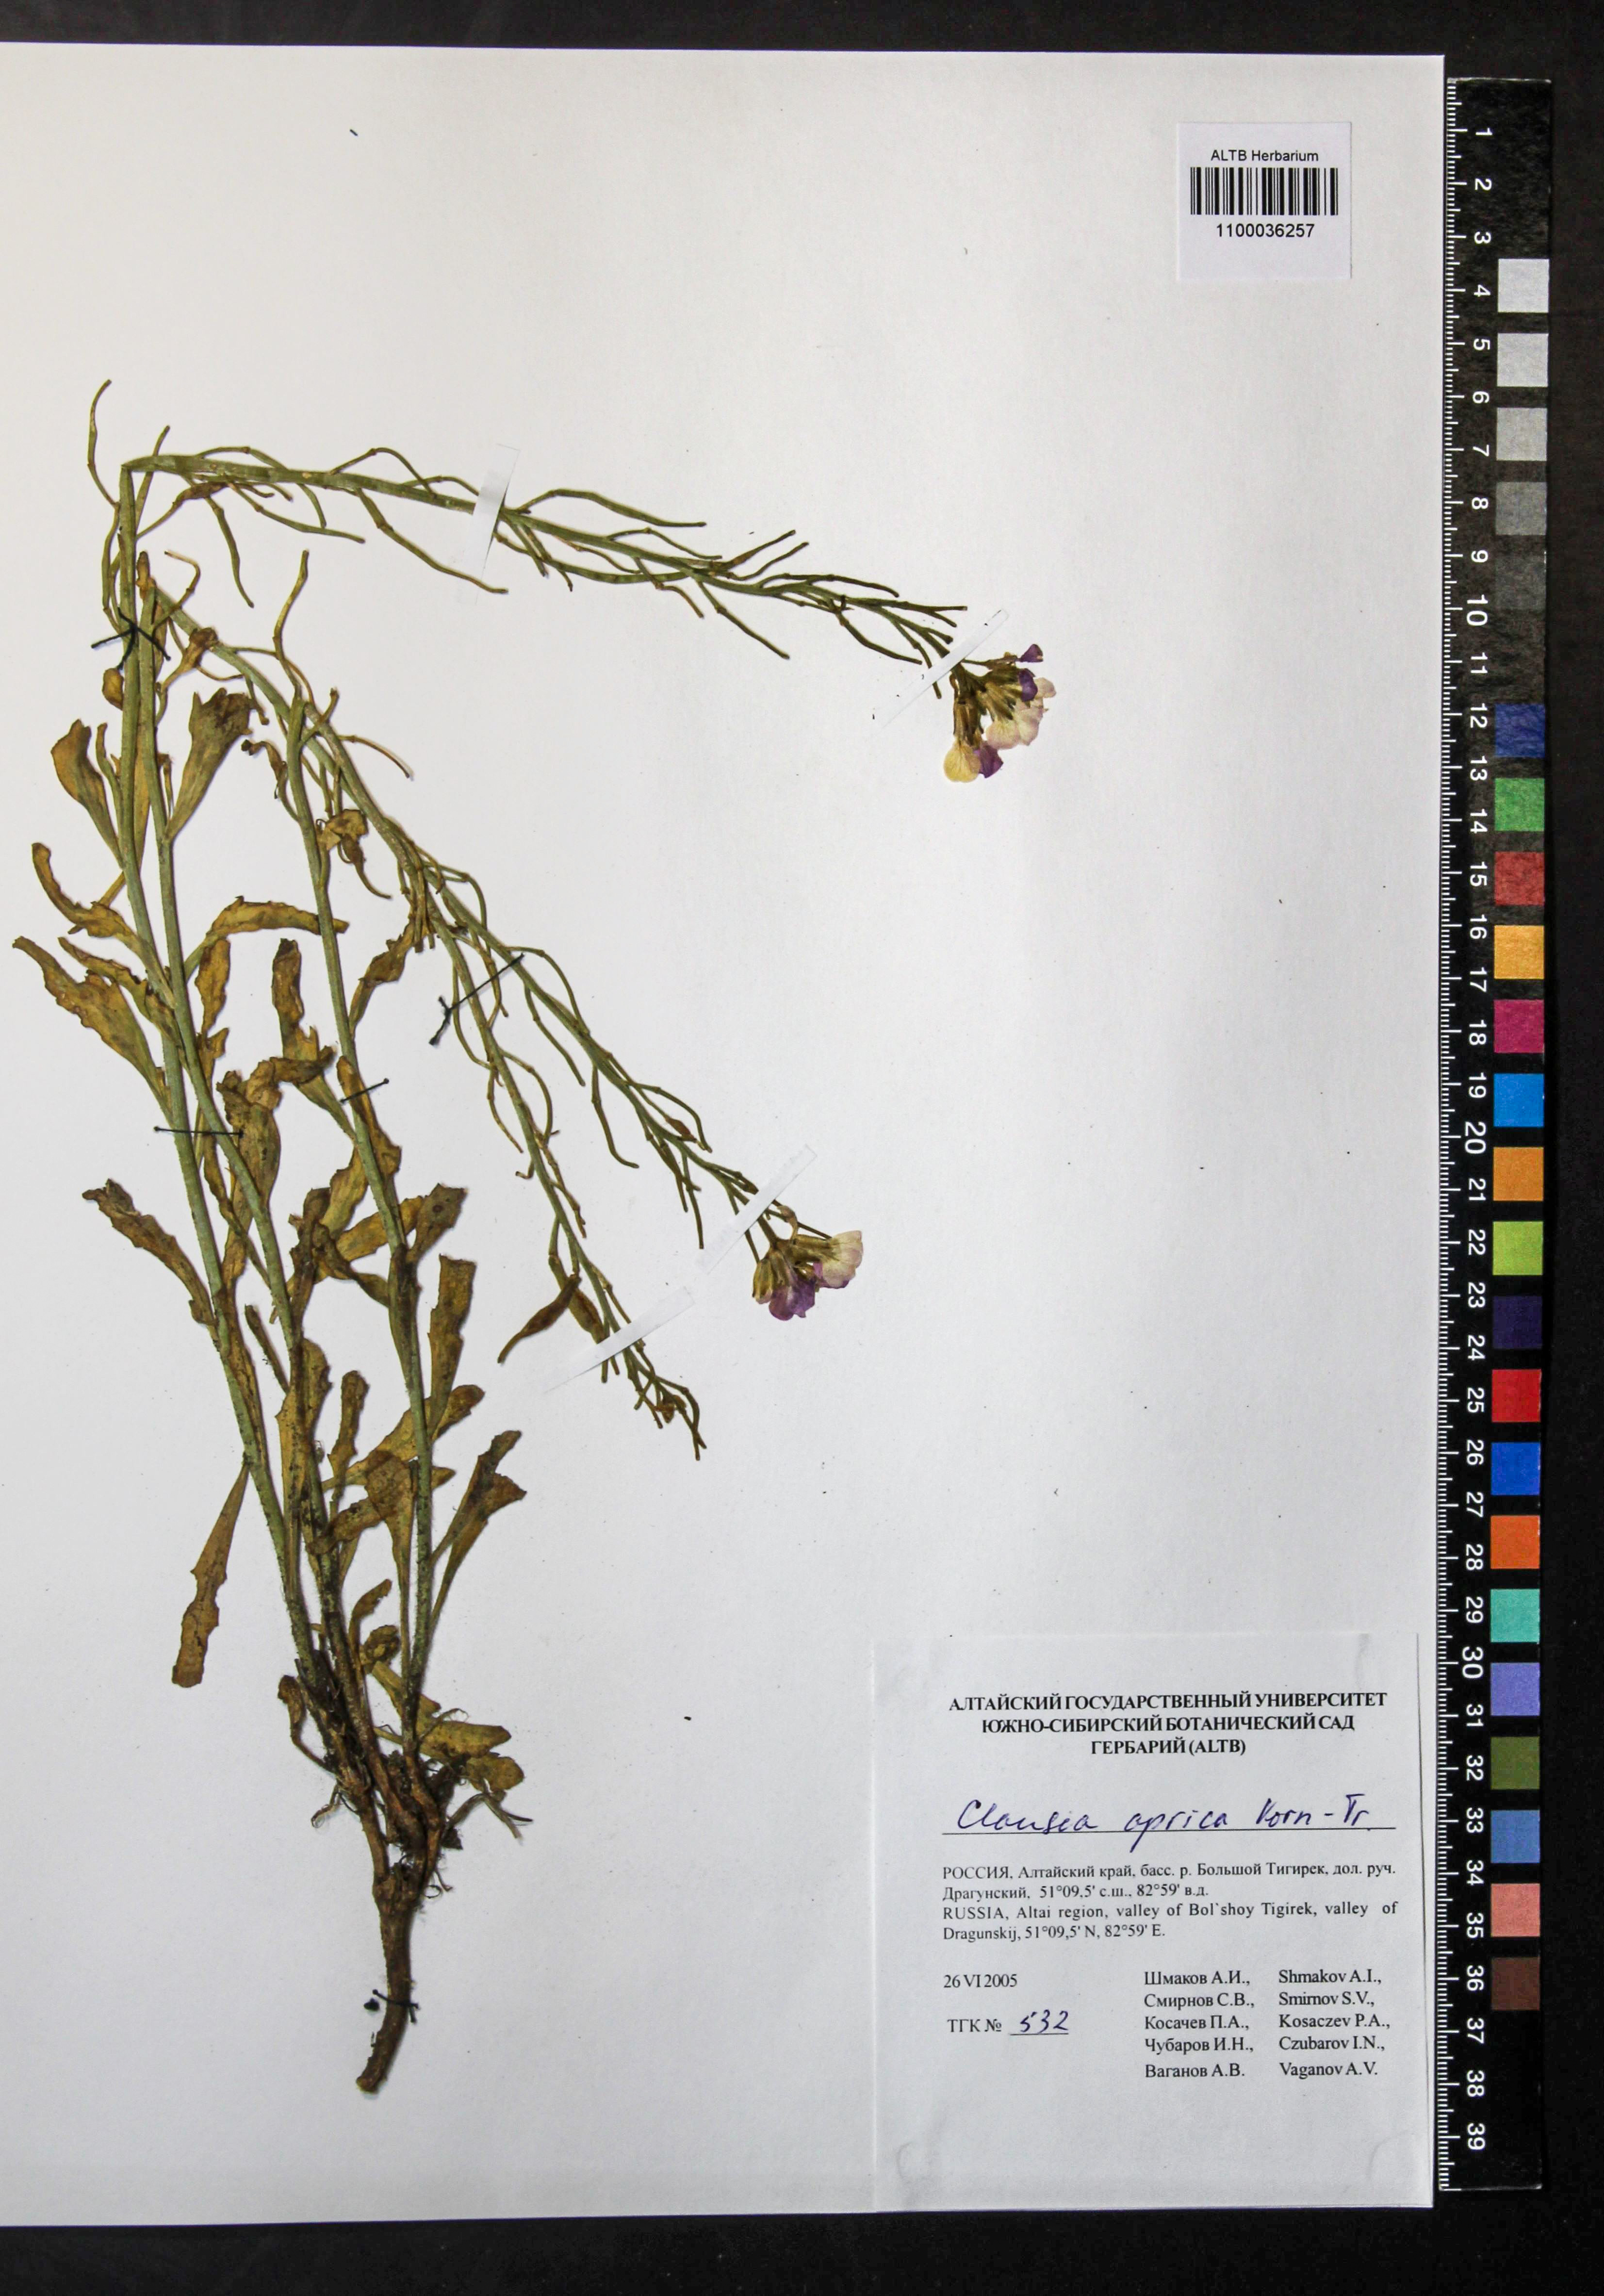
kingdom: Plantae
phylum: Tracheophyta
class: Magnoliopsida
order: Brassicales
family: Brassicaceae
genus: Clausia
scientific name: Clausia aprica
